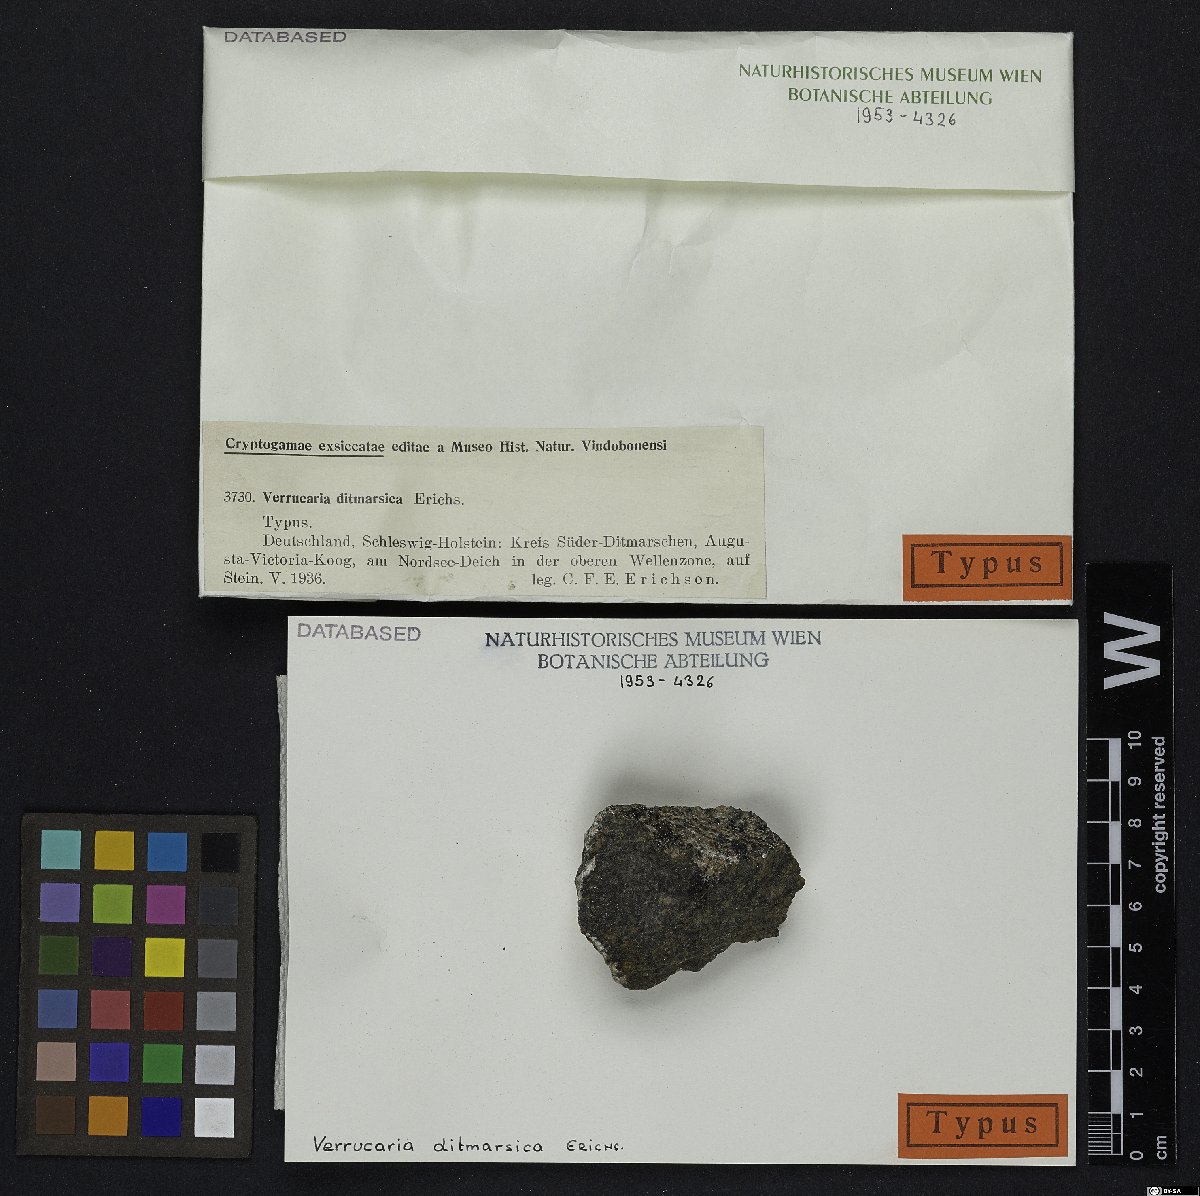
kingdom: Fungi
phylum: Ascomycota
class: Eurotiomycetes
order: Verrucariales
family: Verrucariaceae
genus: Verrucaria
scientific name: Verrucaria ditmarsica
